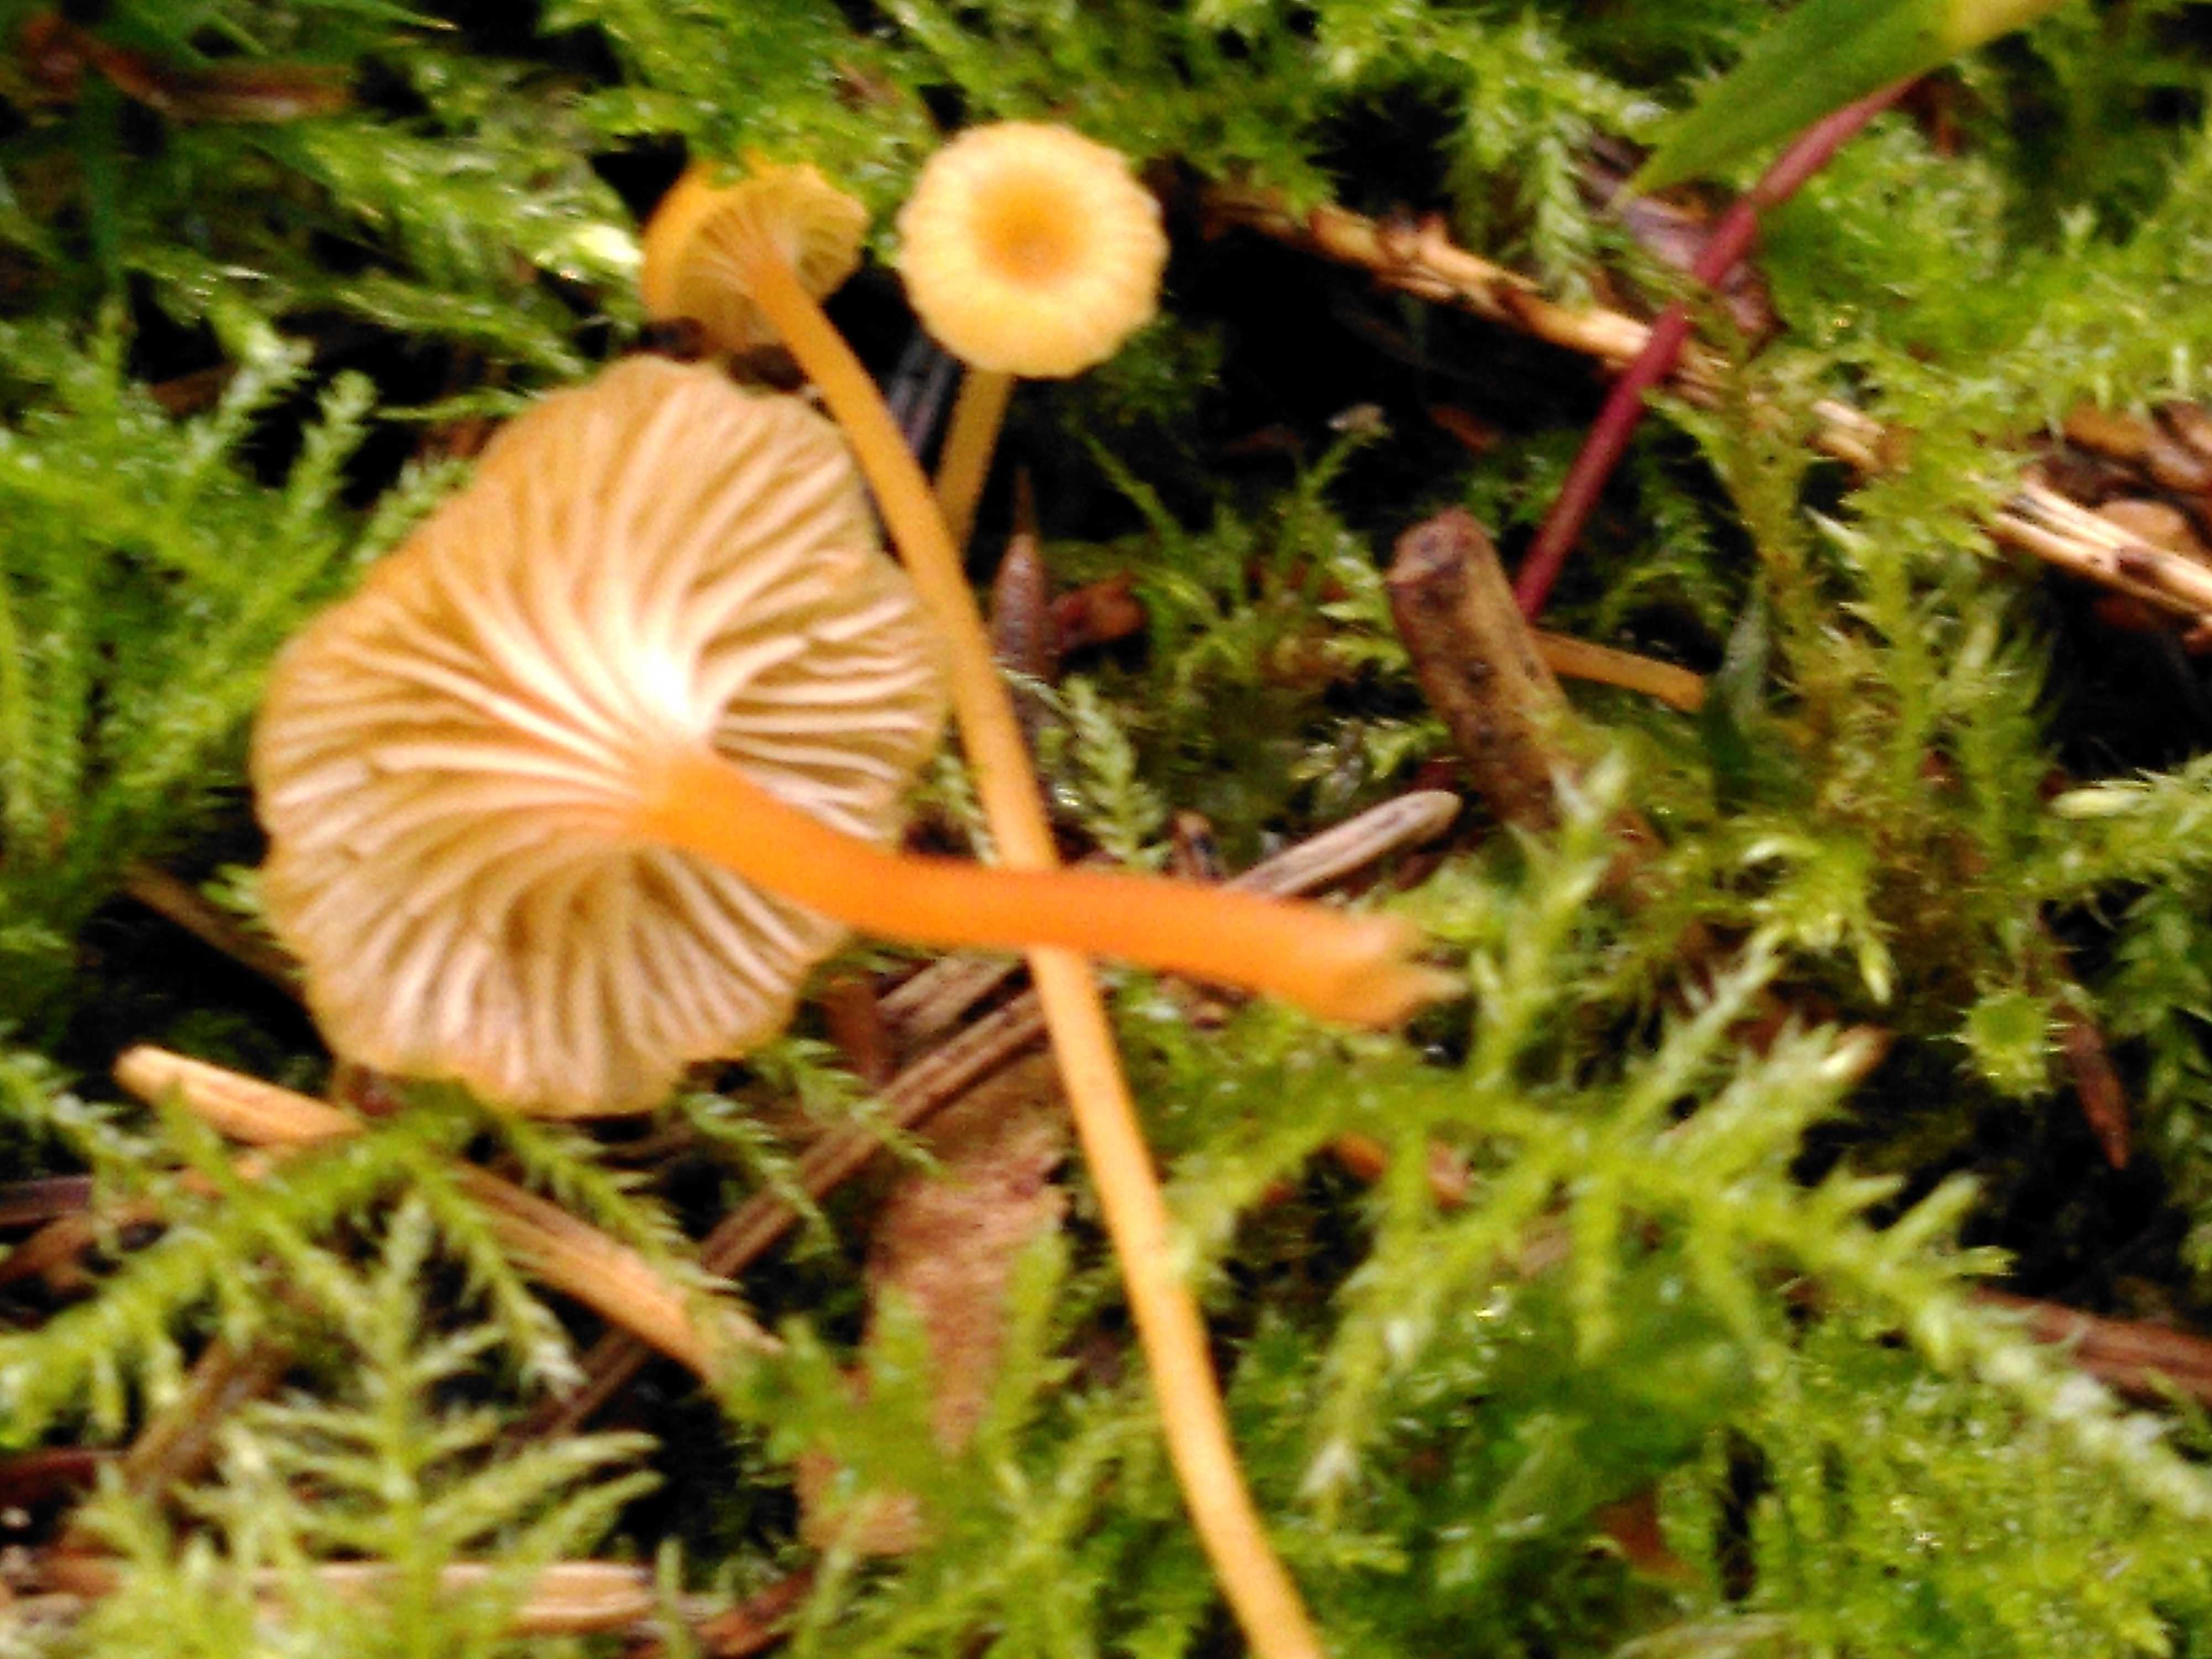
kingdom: Fungi
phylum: Basidiomycota
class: Agaricomycetes
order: Hymenochaetales
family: Rickenellaceae
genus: Rickenella
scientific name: Rickenella fibula
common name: orange mosnavlehat
